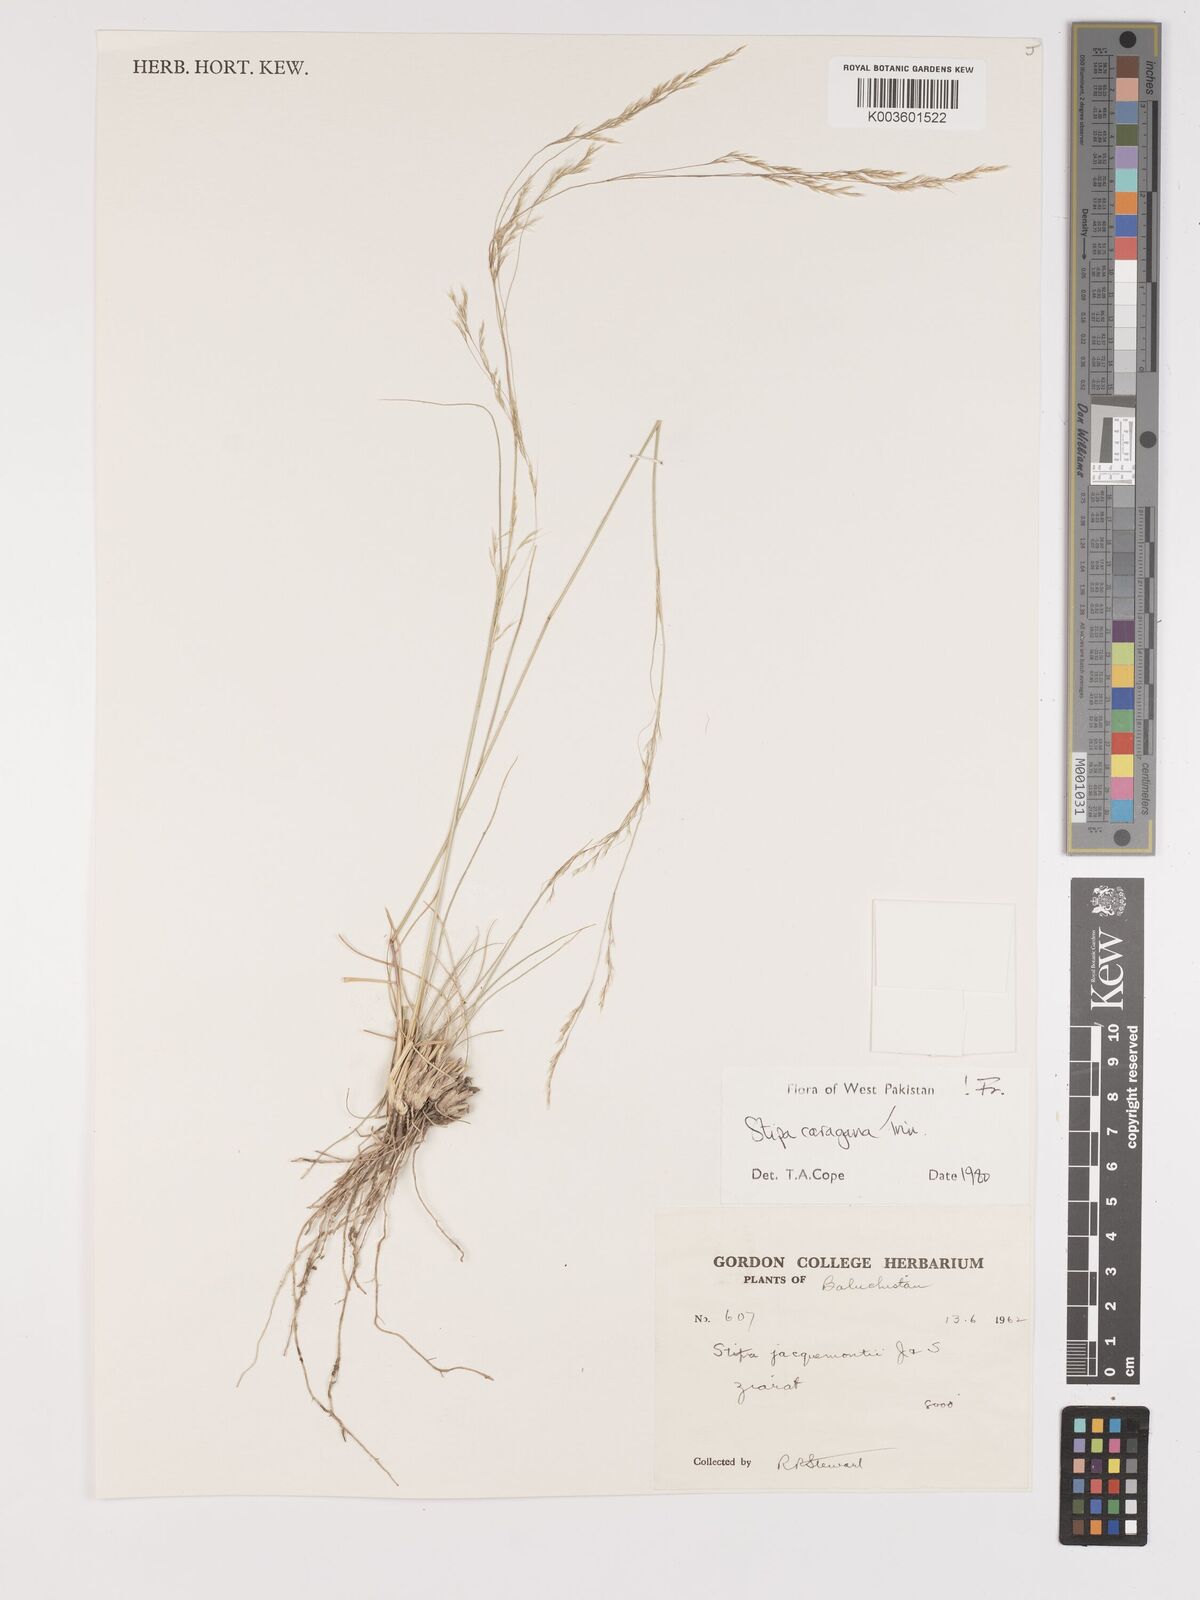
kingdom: Plantae
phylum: Tracheophyta
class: Liliopsida
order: Poales
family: Poaceae
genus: Stipa
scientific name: Stipa conferta
